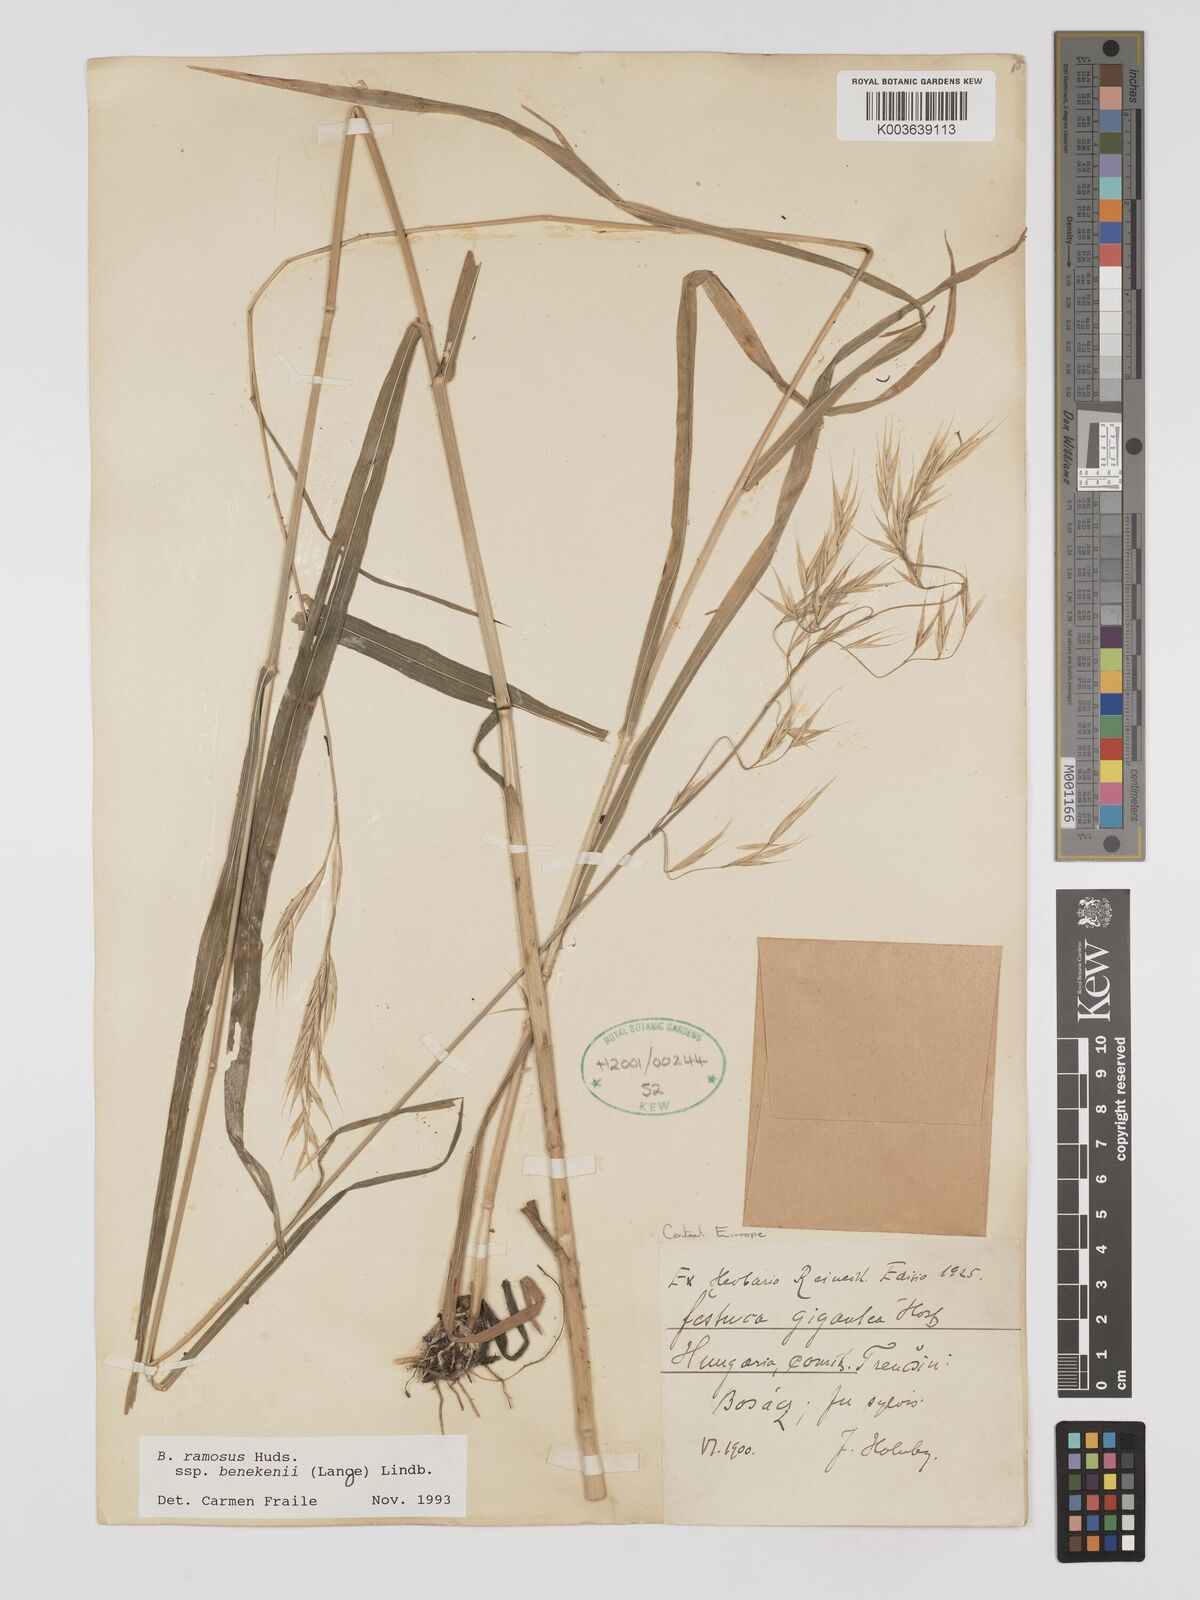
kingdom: Plantae
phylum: Tracheophyta
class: Liliopsida
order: Poales
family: Poaceae
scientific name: Poaceae
